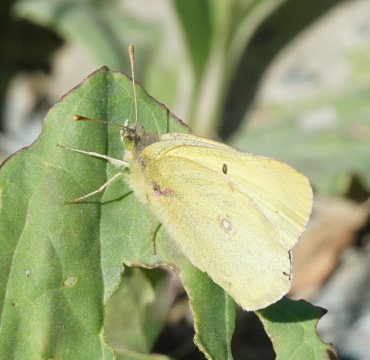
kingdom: Animalia
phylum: Arthropoda
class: Insecta
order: Lepidoptera
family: Pieridae
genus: Colias
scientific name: Colias philodice
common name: Clouded Sulphur
